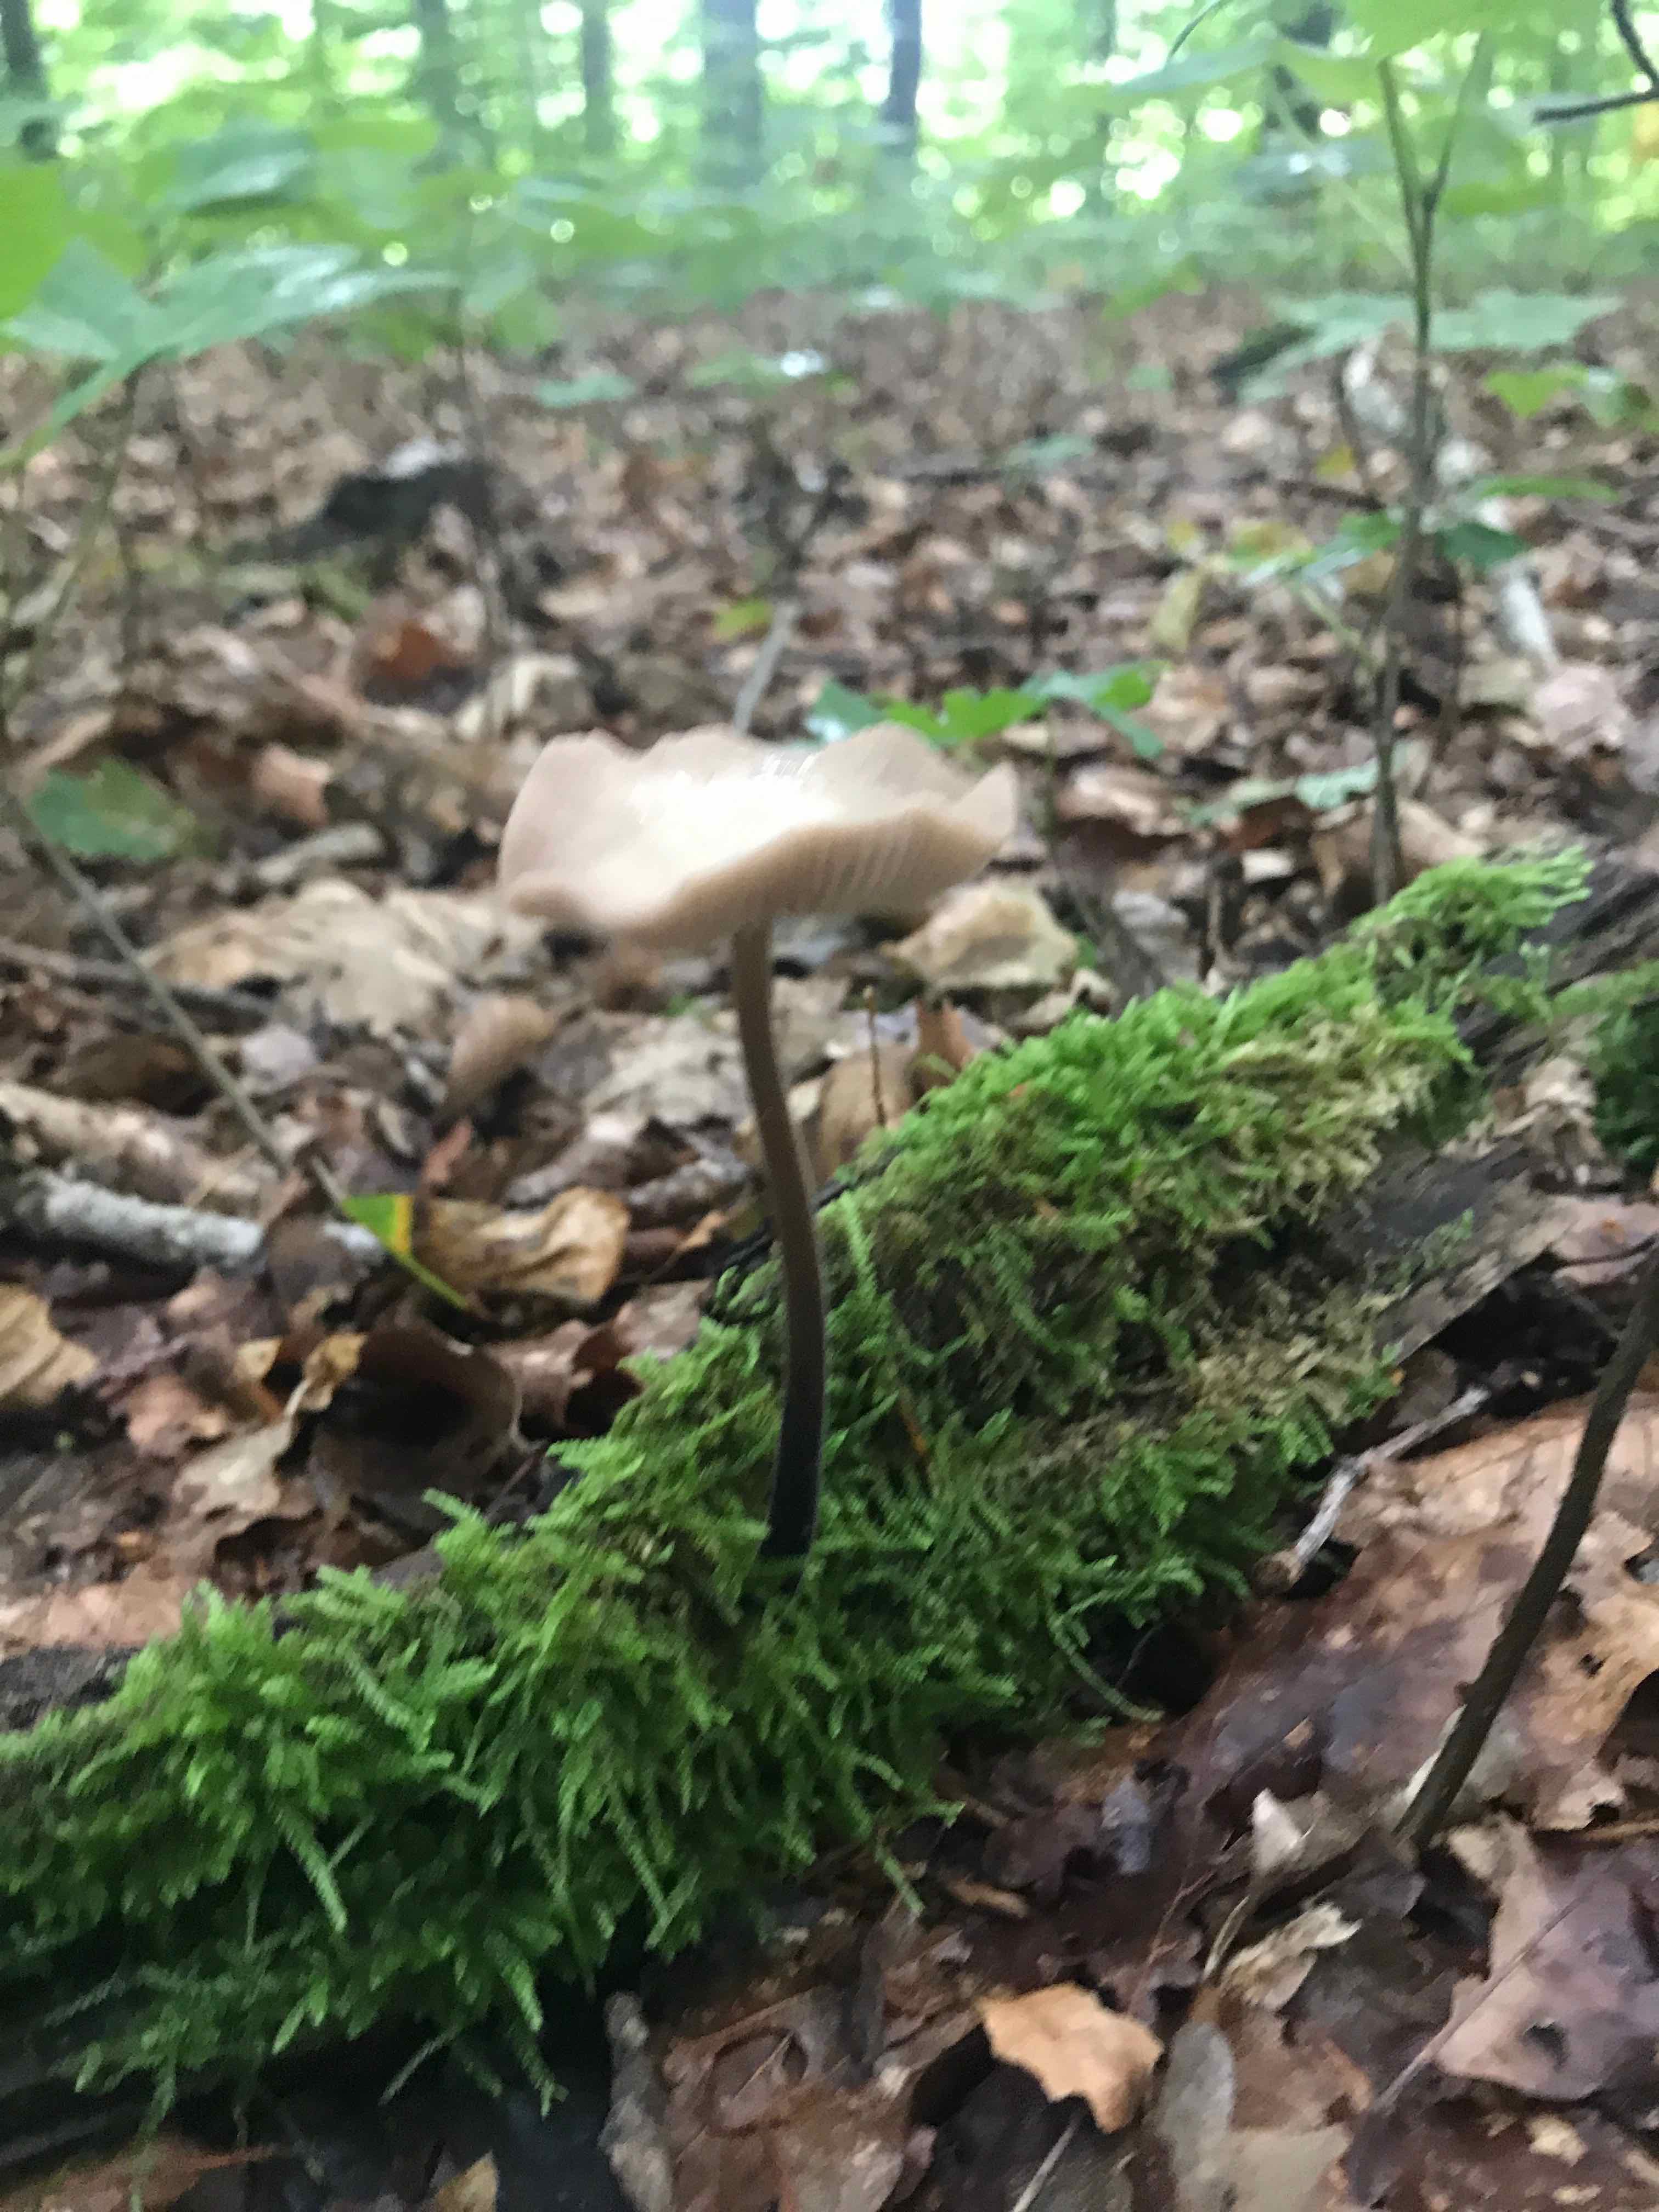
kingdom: Fungi
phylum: Basidiomycota
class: Agaricomycetes
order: Agaricales
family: Omphalotaceae
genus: Mycetinis
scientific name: Mycetinis alliaceus
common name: stor løghat
